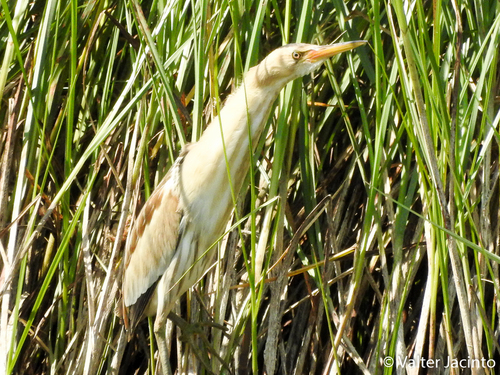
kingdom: Animalia
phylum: Chordata
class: Aves
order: Pelecaniformes
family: Ardeidae
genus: Ixobrychus
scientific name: Ixobrychus minutus
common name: Little bittern
